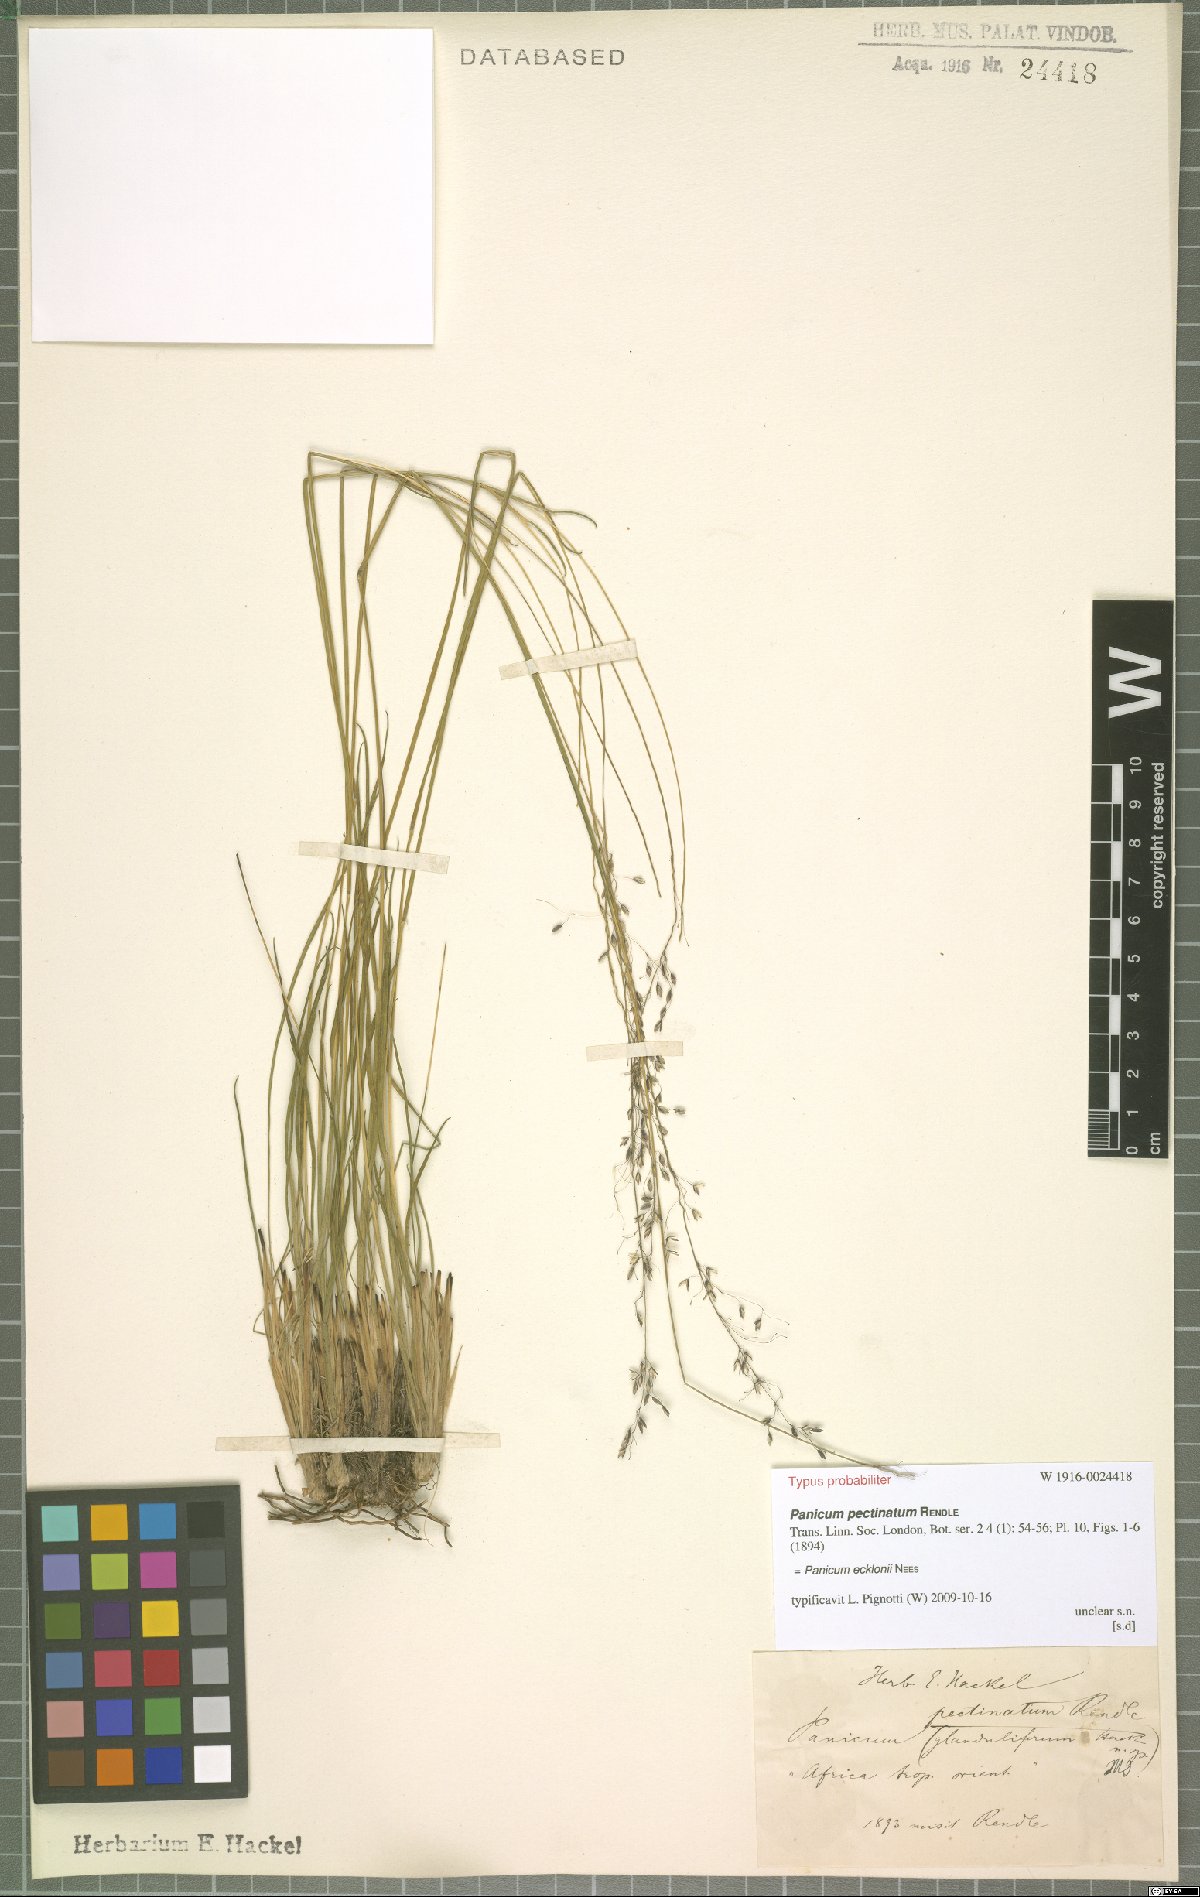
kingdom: Plantae
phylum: Tracheophyta
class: Liliopsida
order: Poales
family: Poaceae
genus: Adenochloa
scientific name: Adenochloa ecklonii
